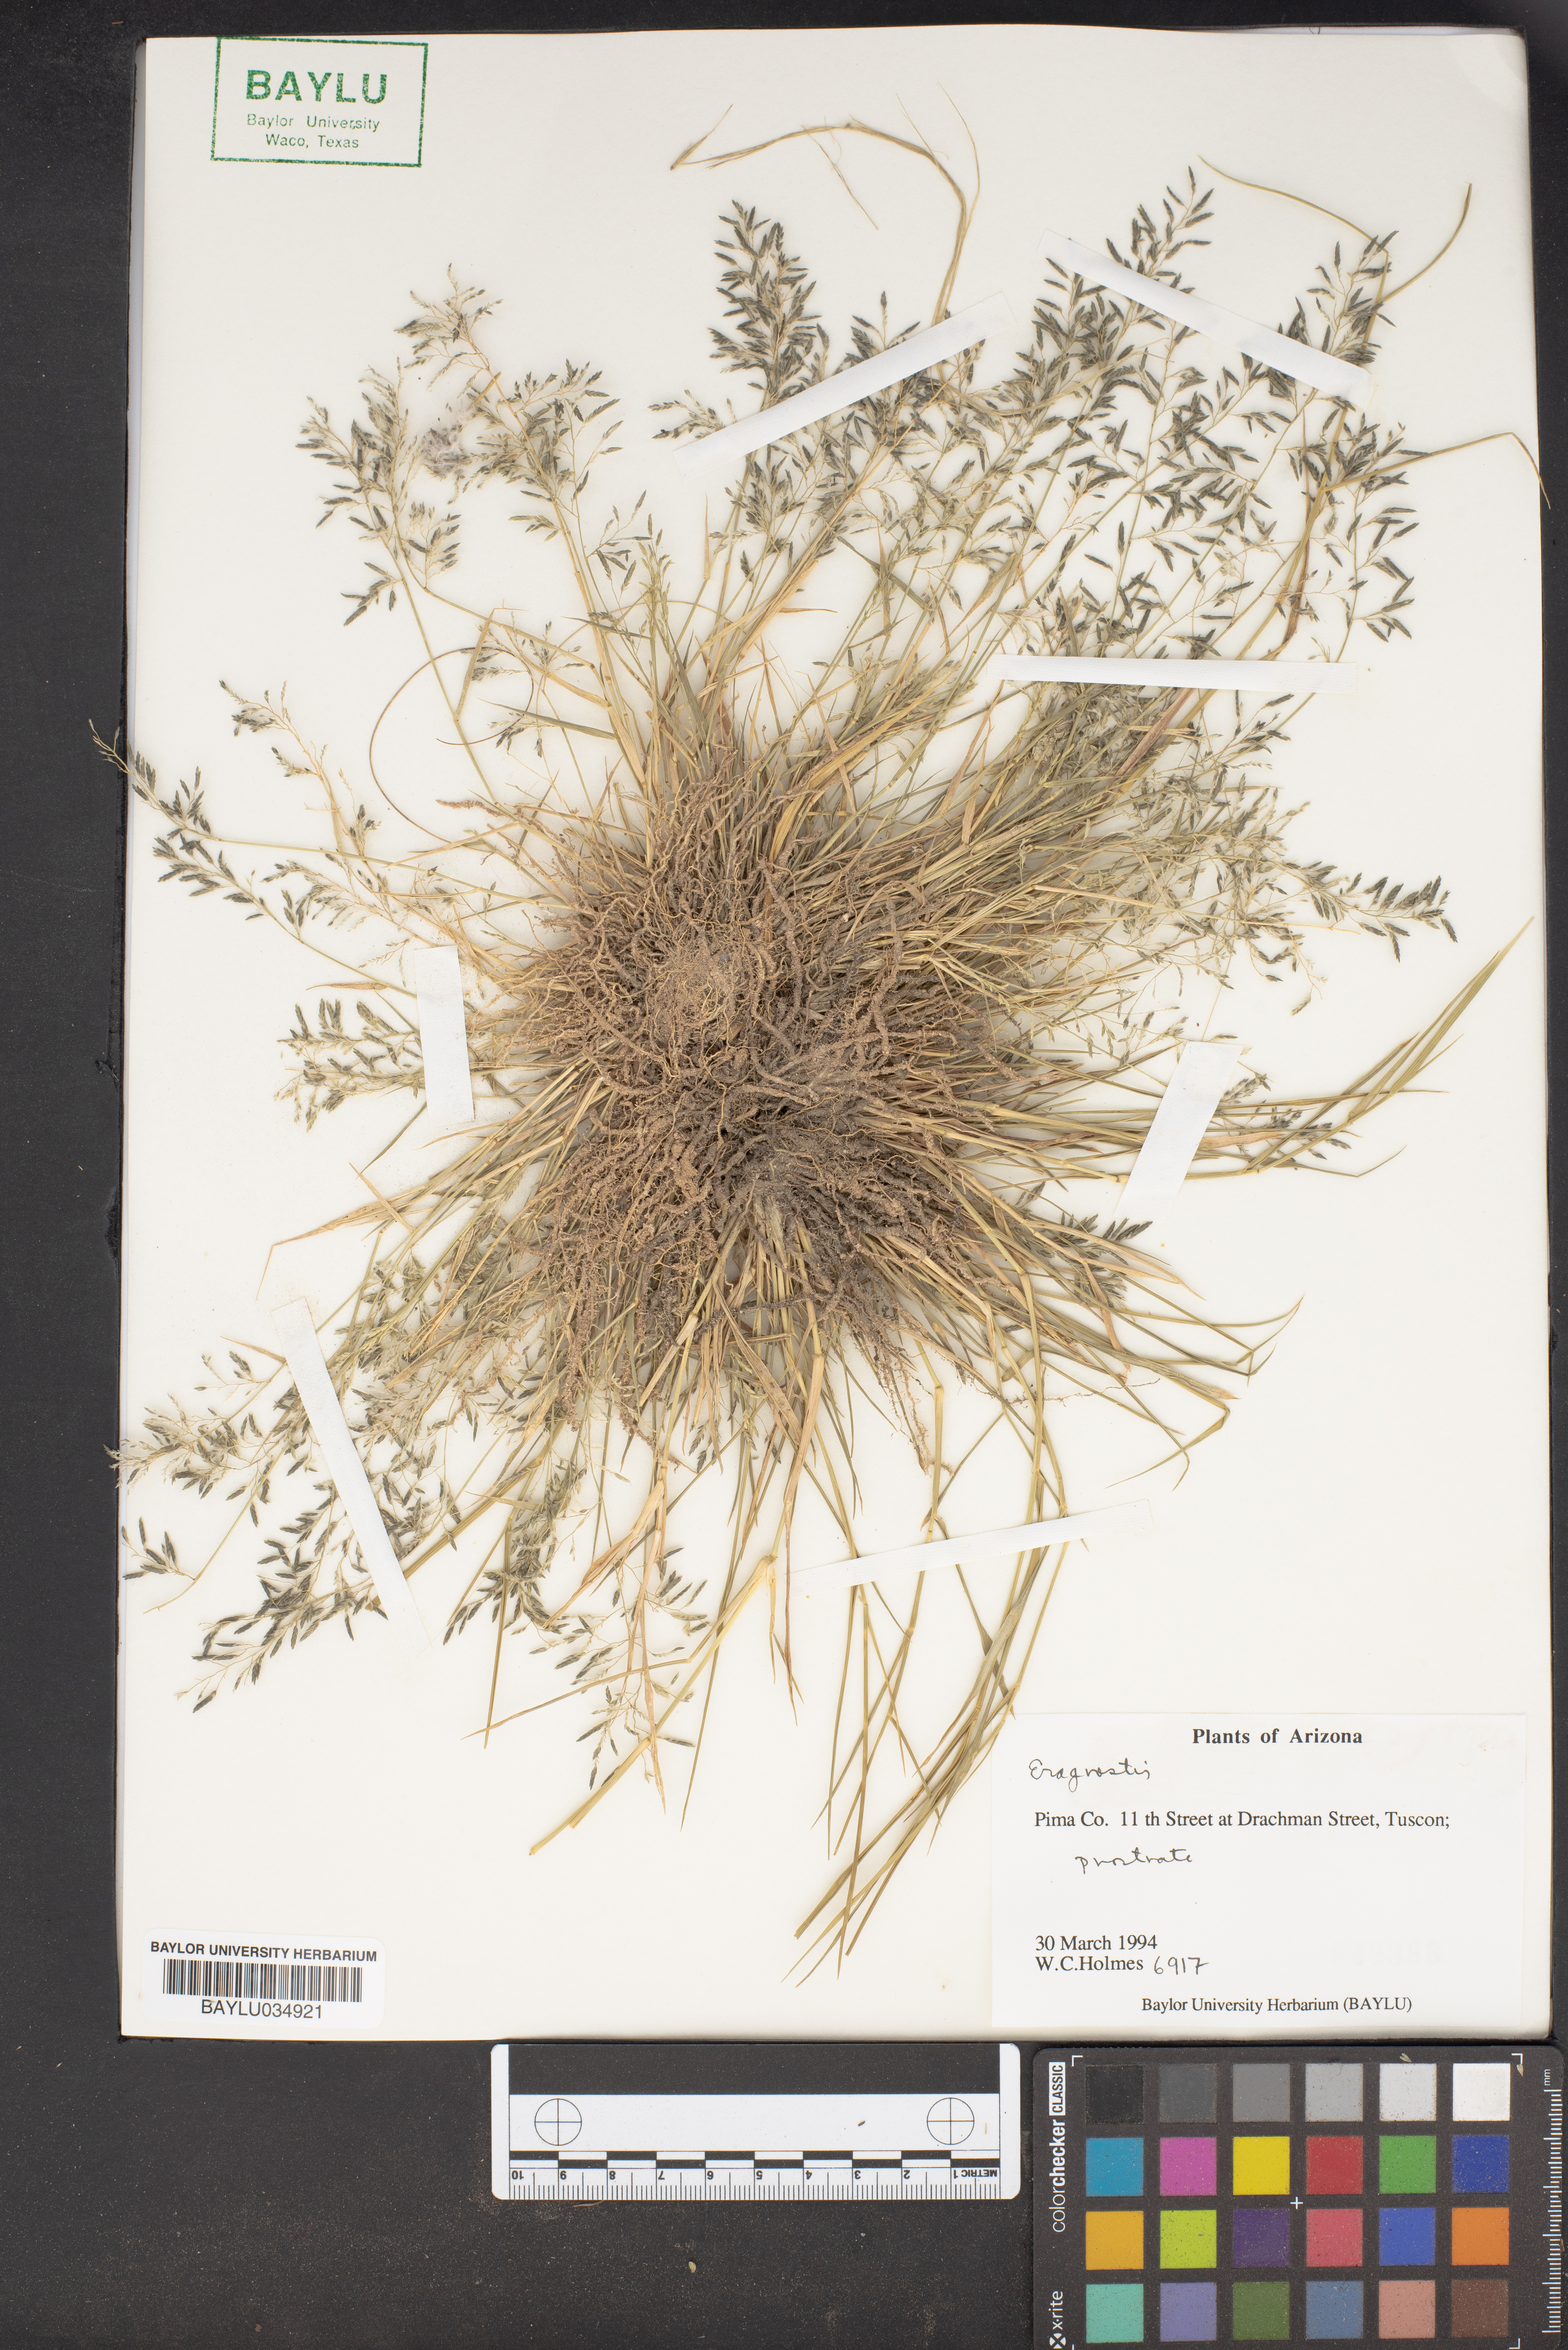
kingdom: Plantae
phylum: Tracheophyta
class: Liliopsida
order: Poales
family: Poaceae
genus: Eragrostis
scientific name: Eragrostis
